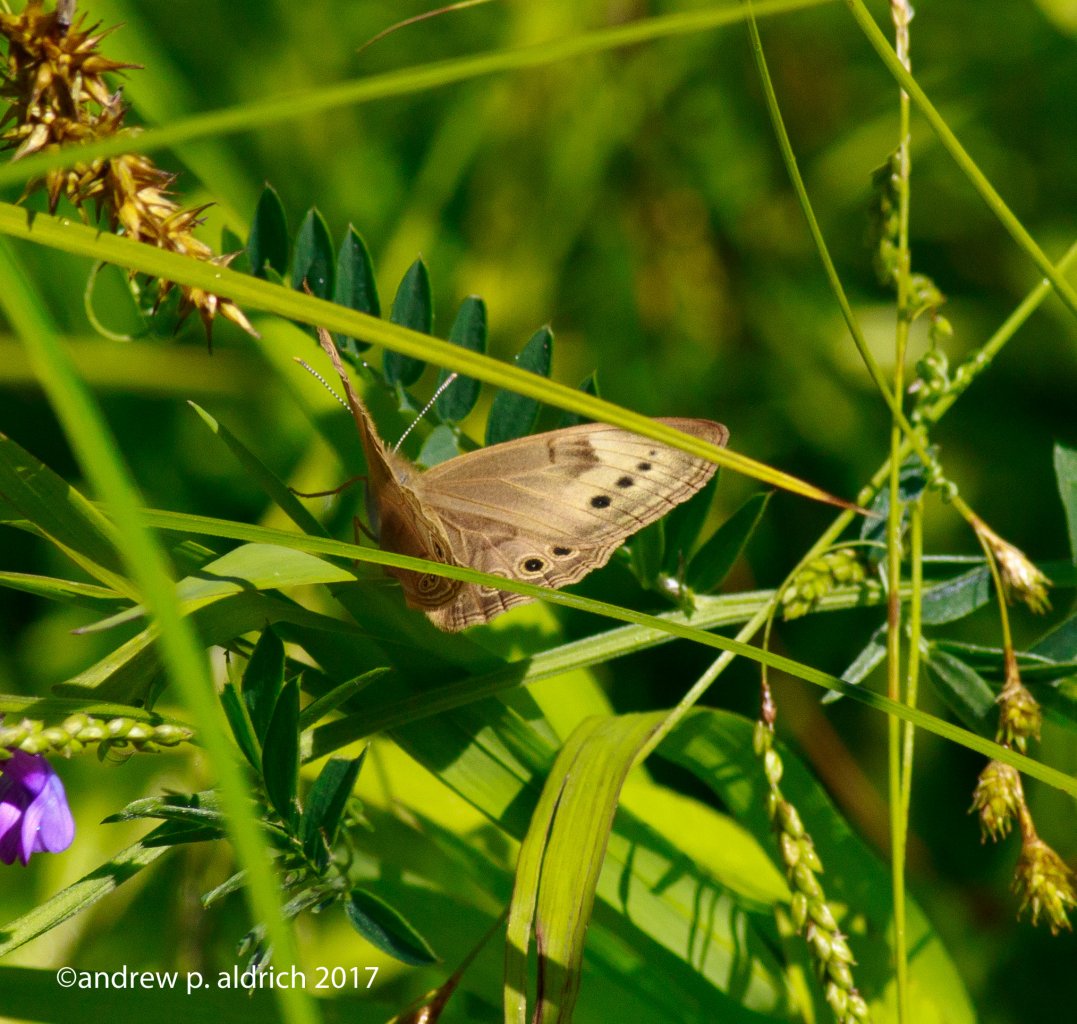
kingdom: Animalia
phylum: Arthropoda
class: Insecta
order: Lepidoptera
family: Nymphalidae
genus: Lethe
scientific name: Lethe eurydice
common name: Eyed Brown
